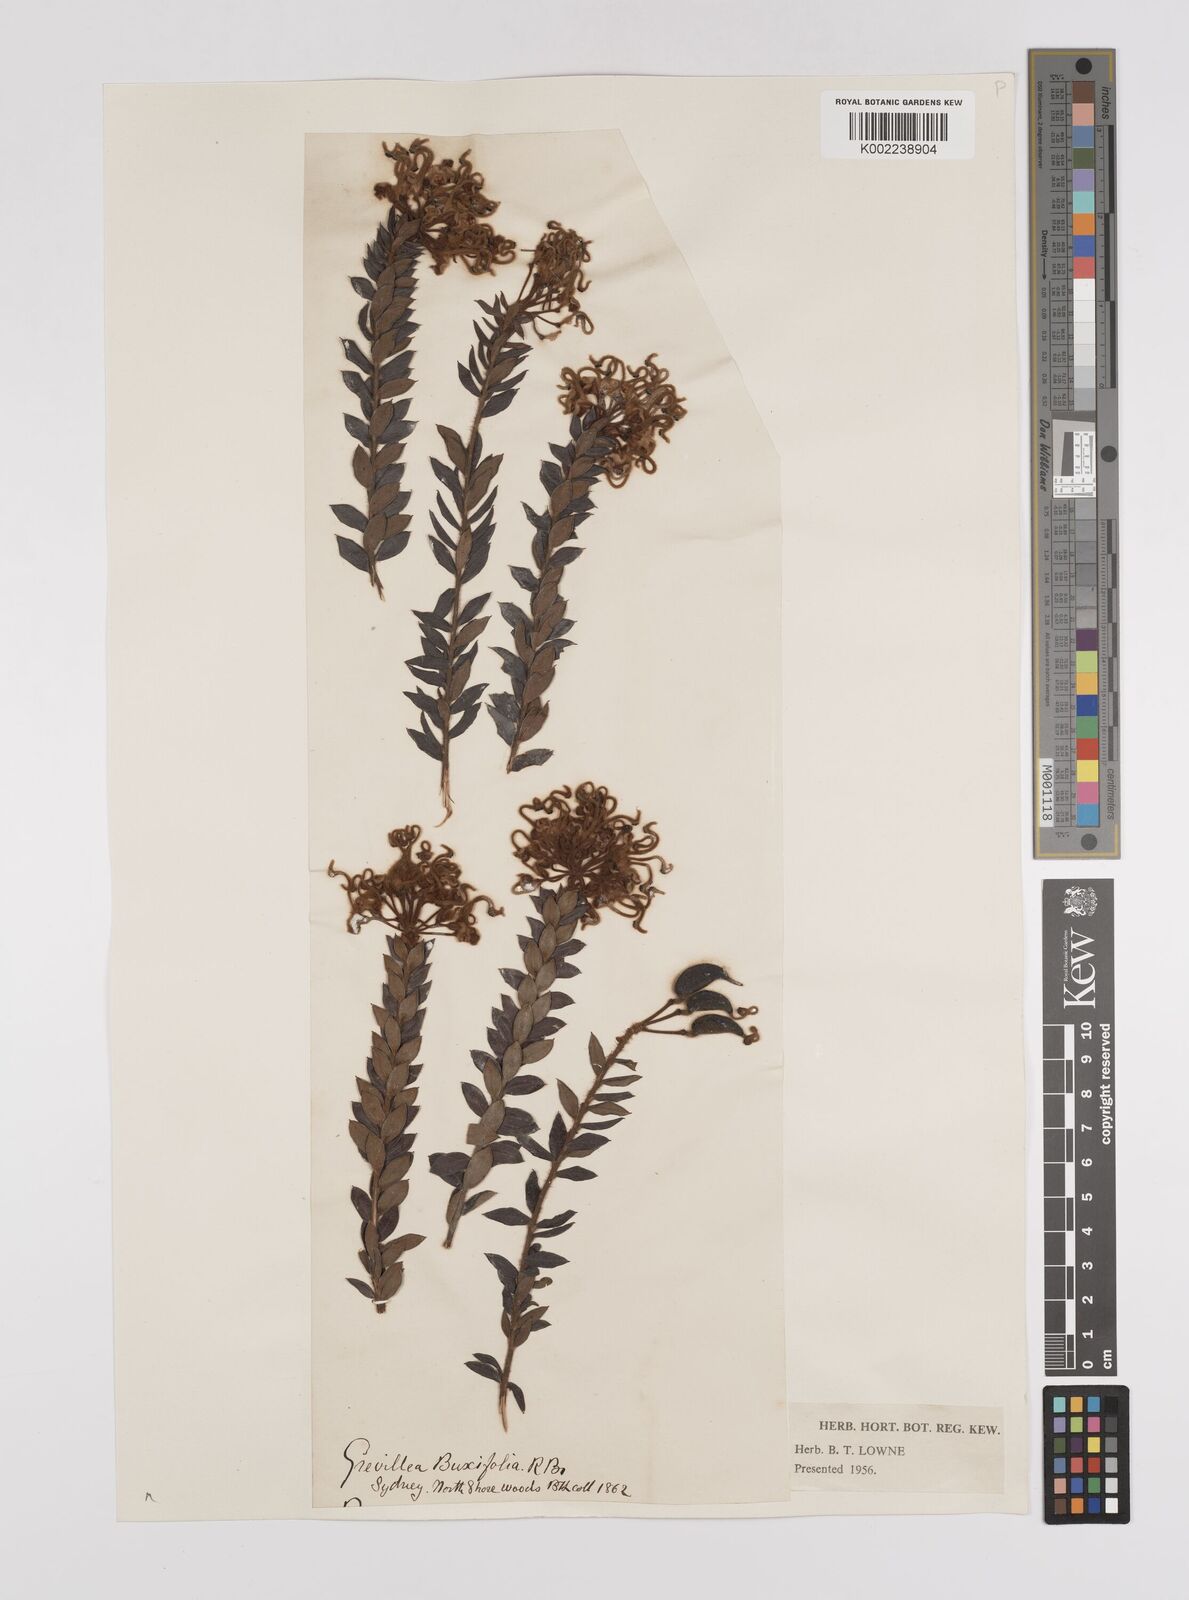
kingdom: Plantae
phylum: Tracheophyta
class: Magnoliopsida
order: Proteales
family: Proteaceae
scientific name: Proteaceae
